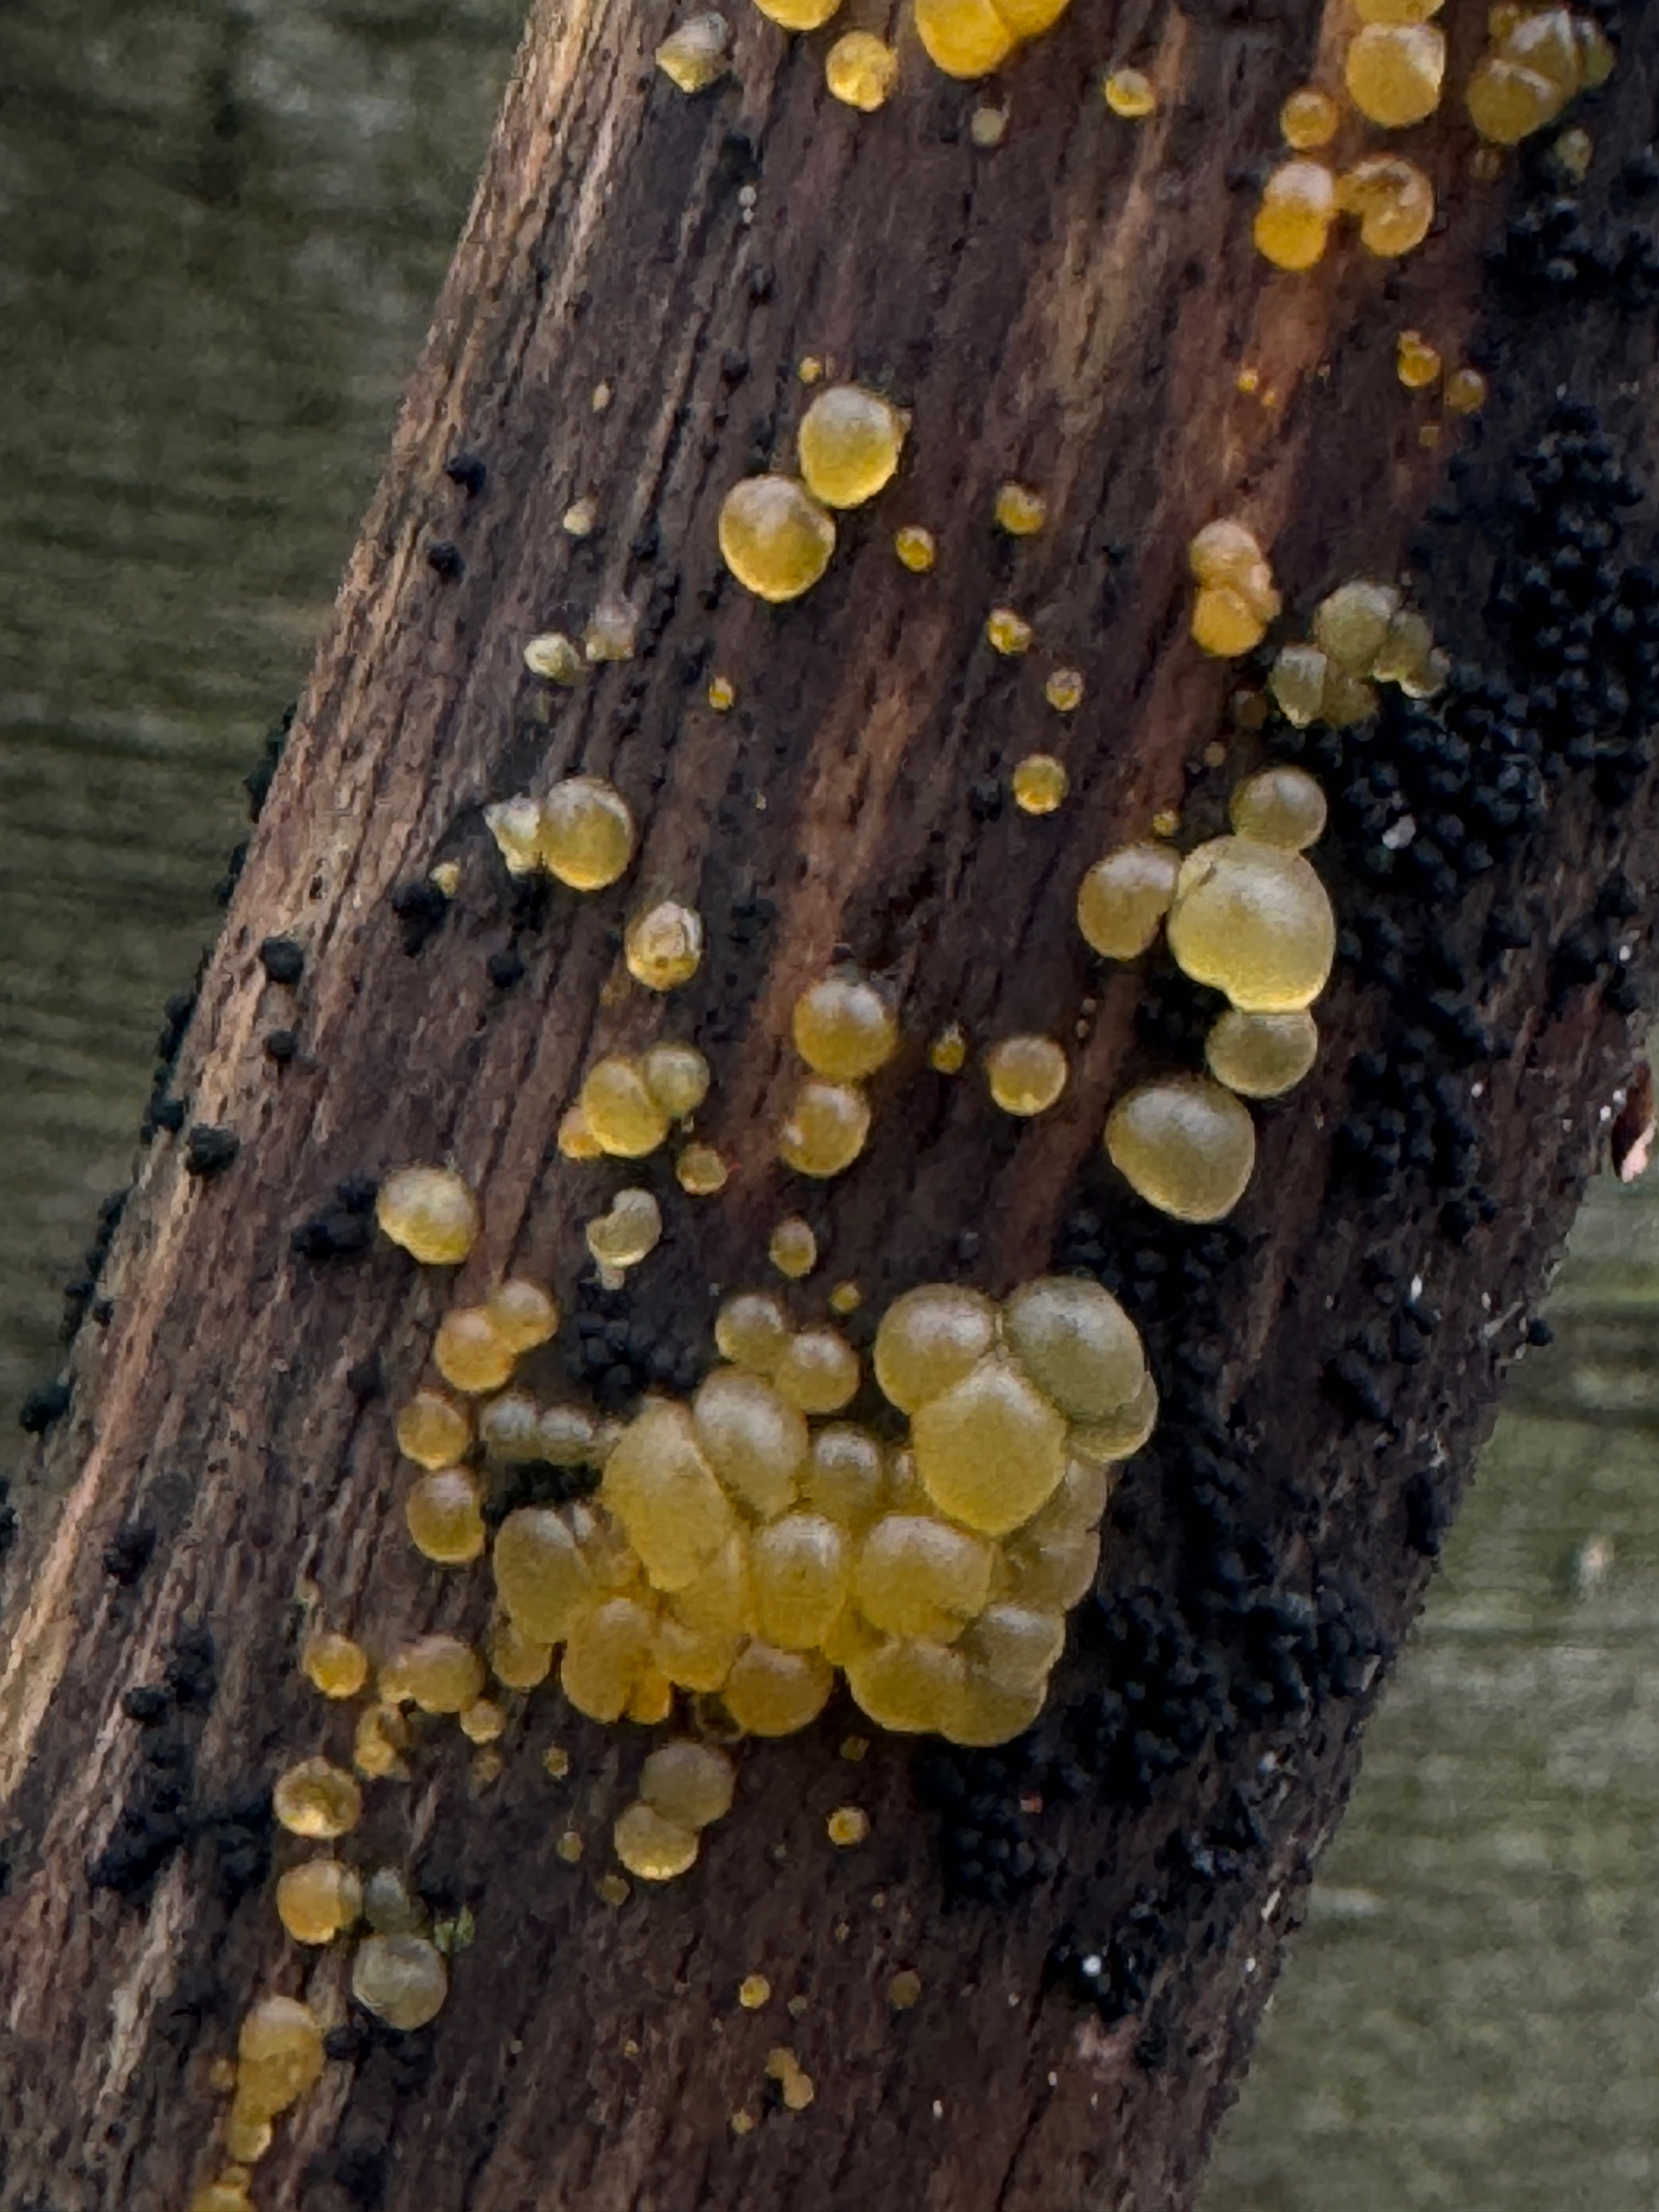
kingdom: Fungi
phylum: Basidiomycota
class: Dacrymycetes
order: Dacrymycetales
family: Dacrymycetaceae
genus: Dacrymyces
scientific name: Dacrymyces
